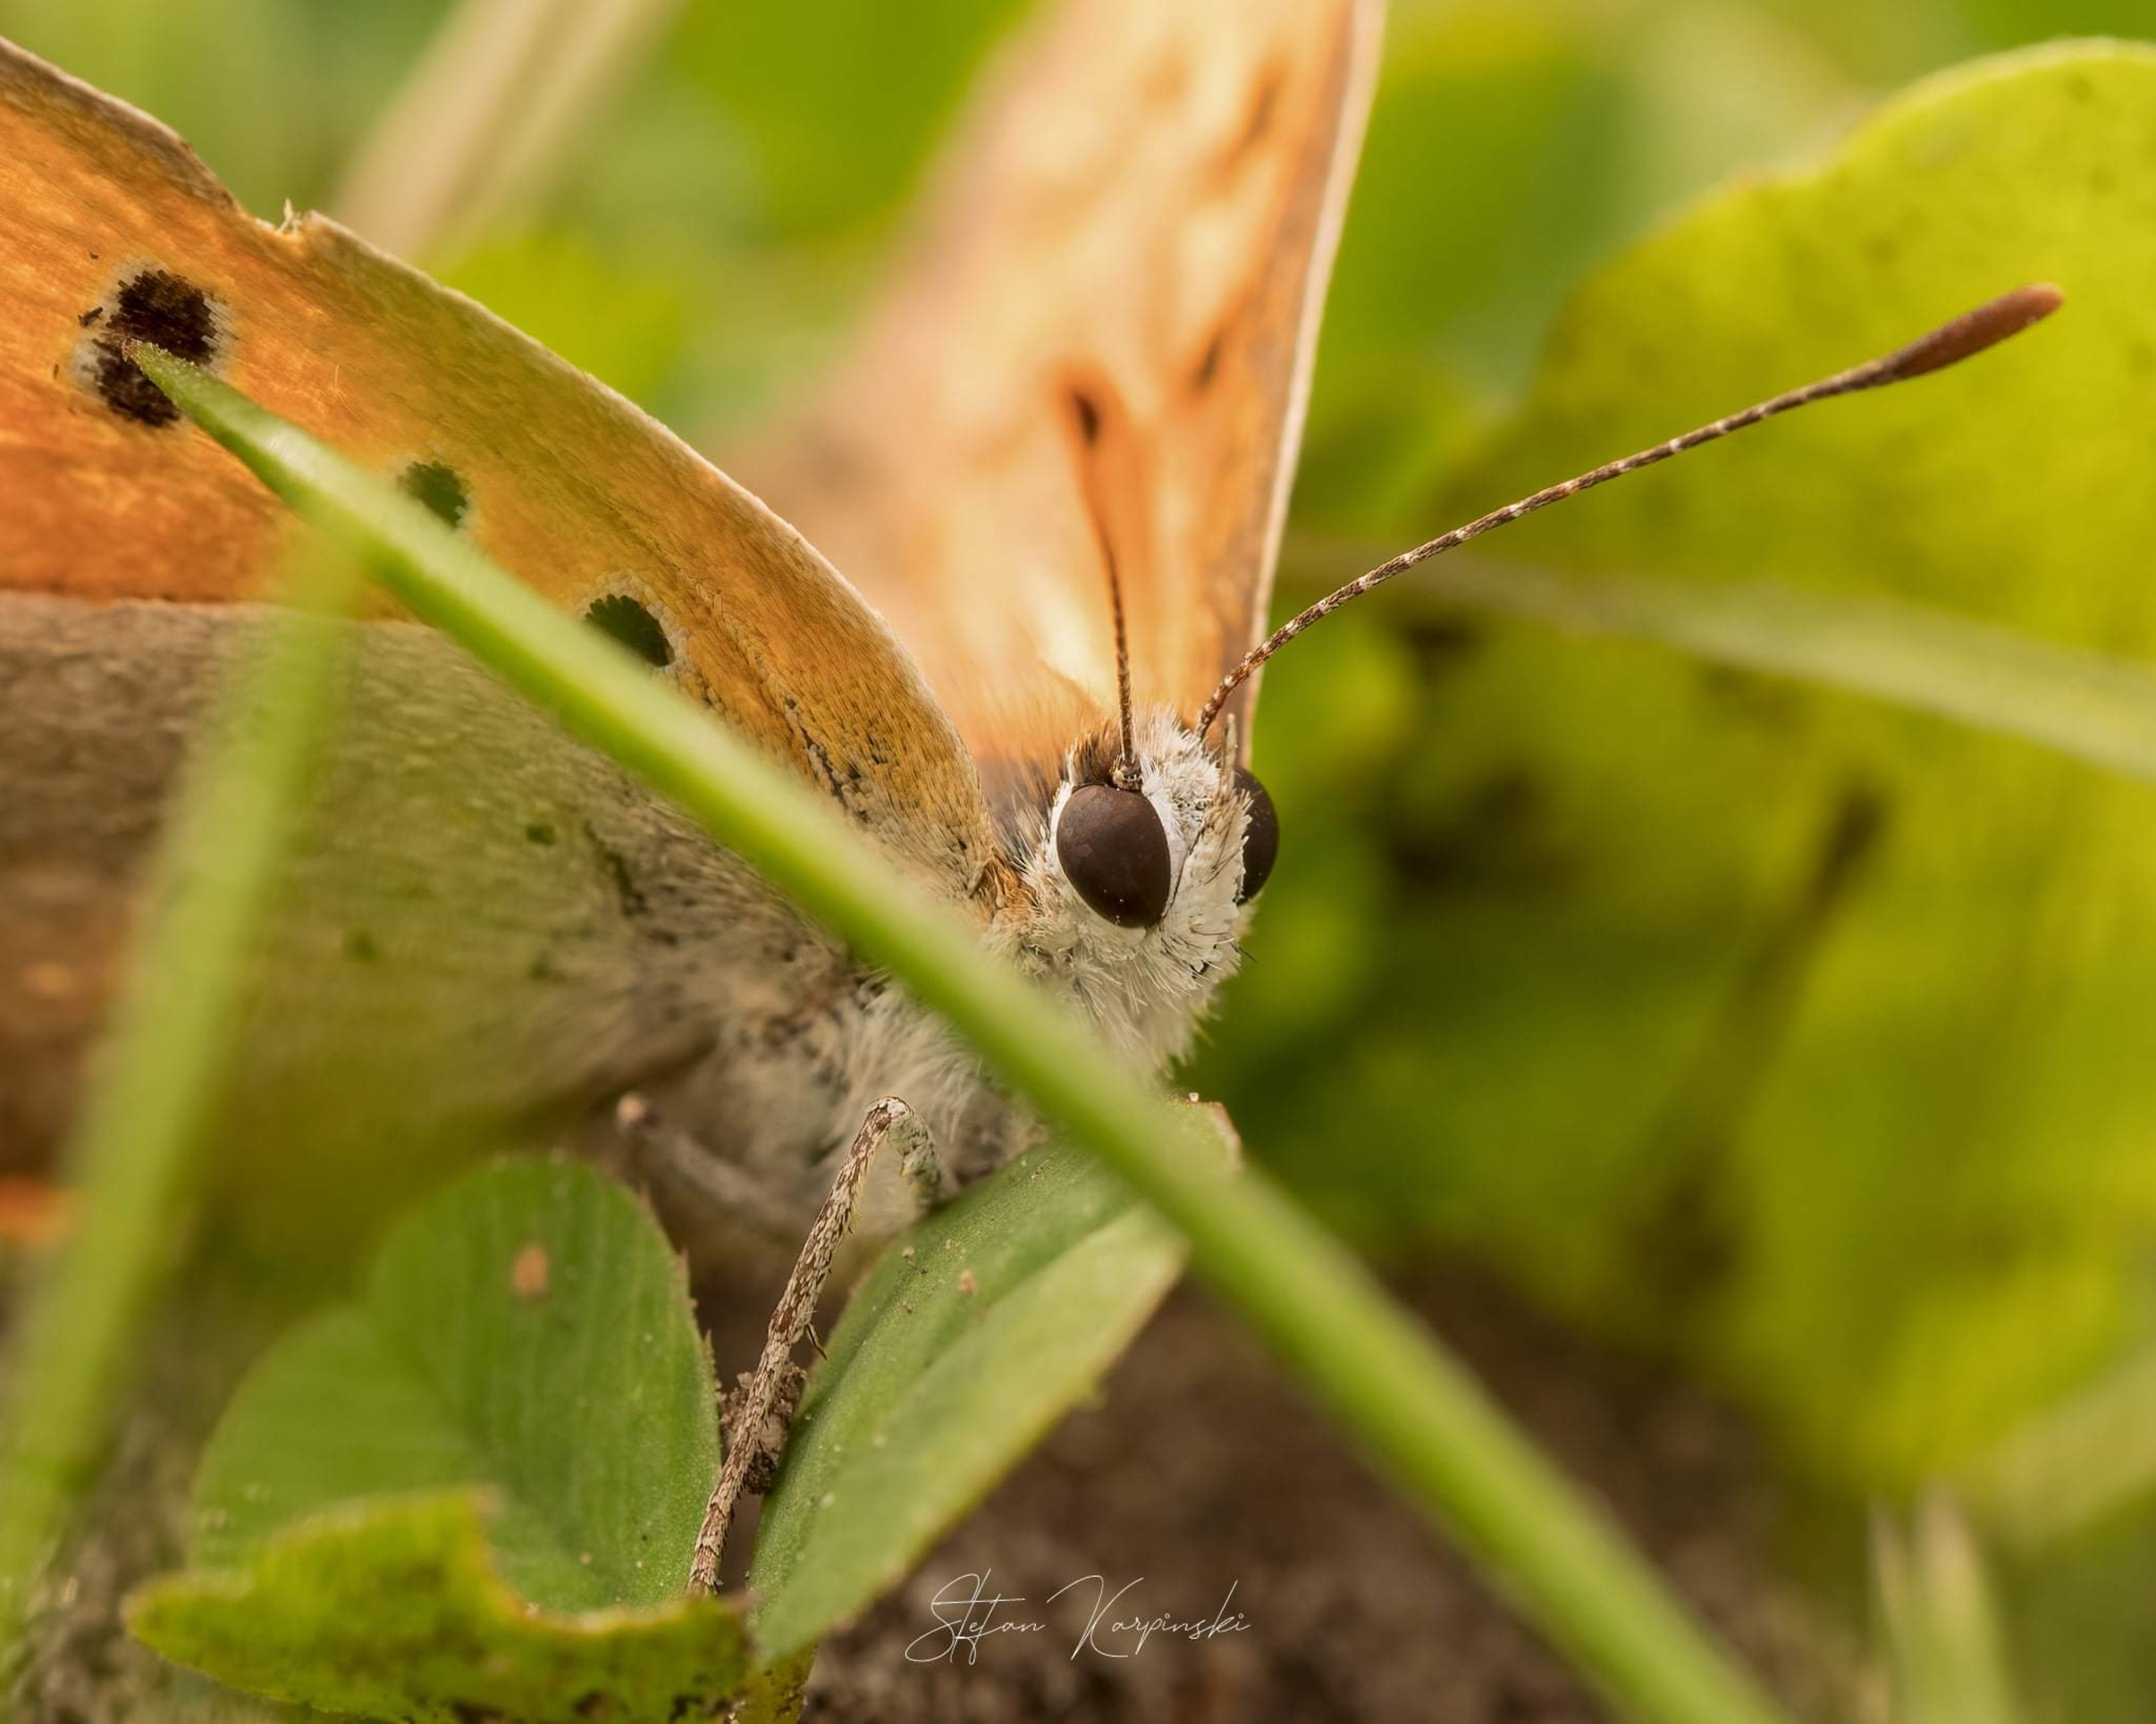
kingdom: Animalia
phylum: Arthropoda
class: Insecta
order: Lepidoptera
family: Lycaenidae
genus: Lycaena
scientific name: Lycaena phlaeas
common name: Lille ildfugl
